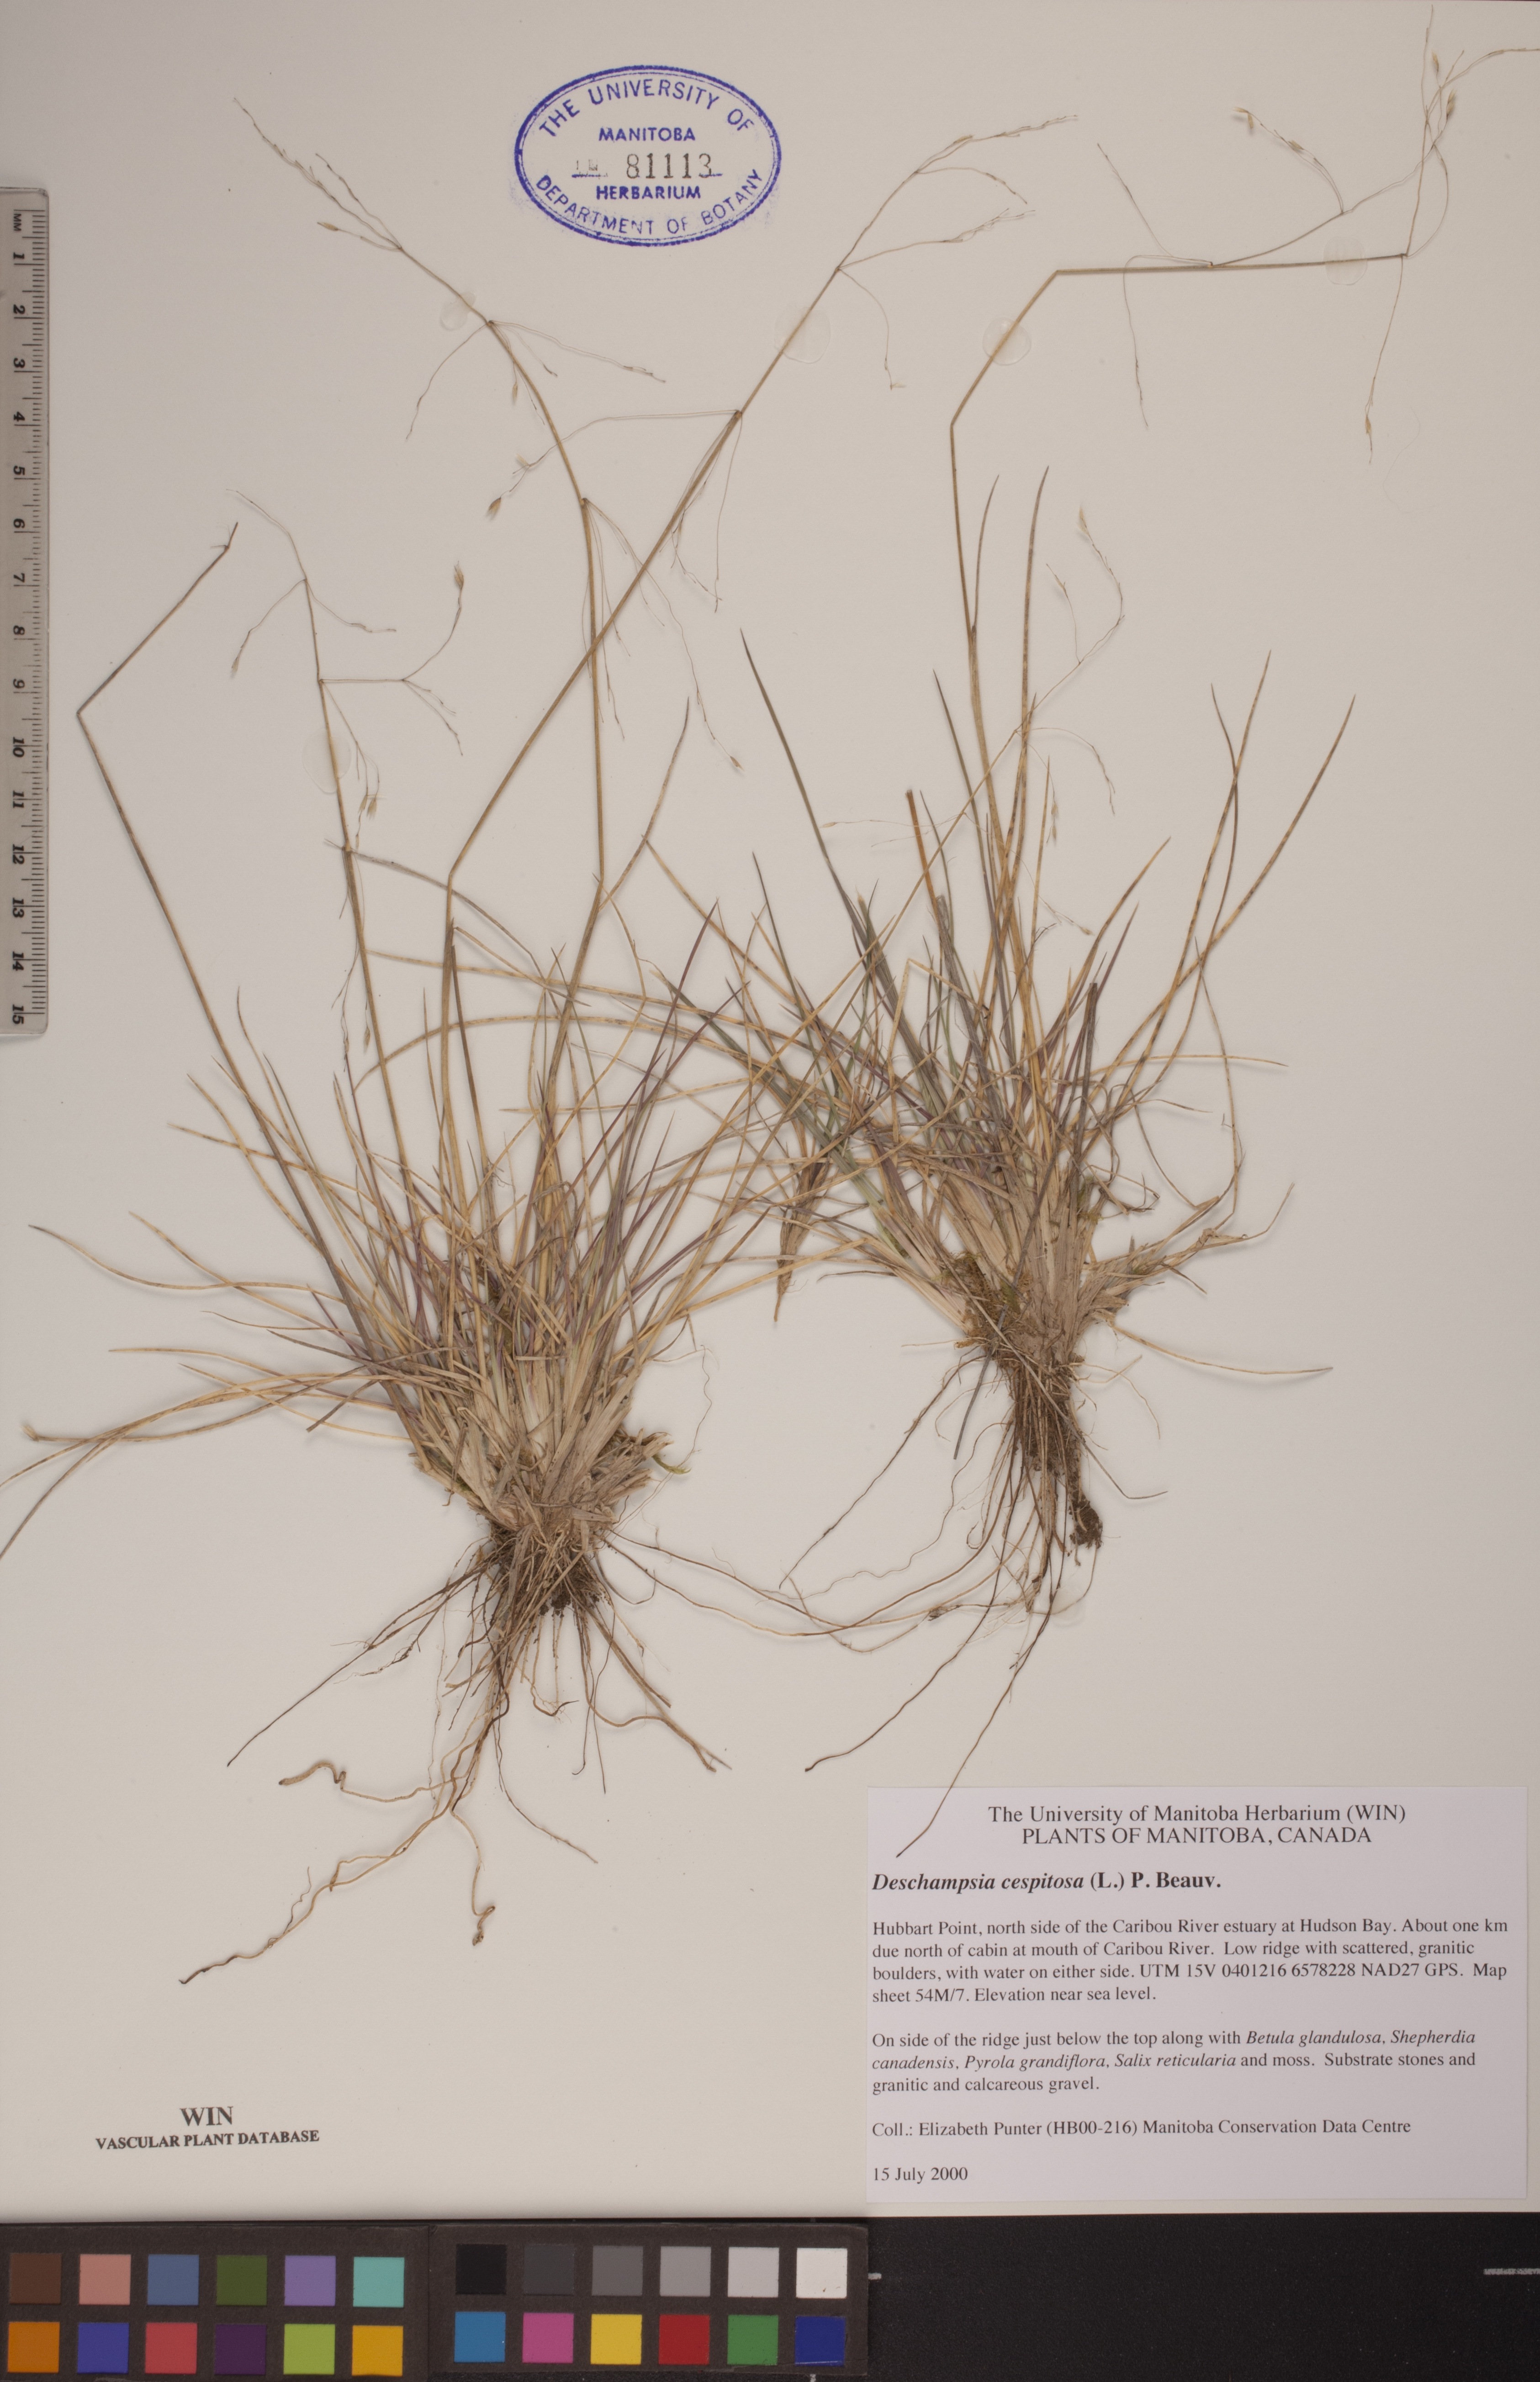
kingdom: Plantae
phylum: Tracheophyta
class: Liliopsida
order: Poales
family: Poaceae
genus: Deschampsia
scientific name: Deschampsia cespitosa
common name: Tufted hair-grass
